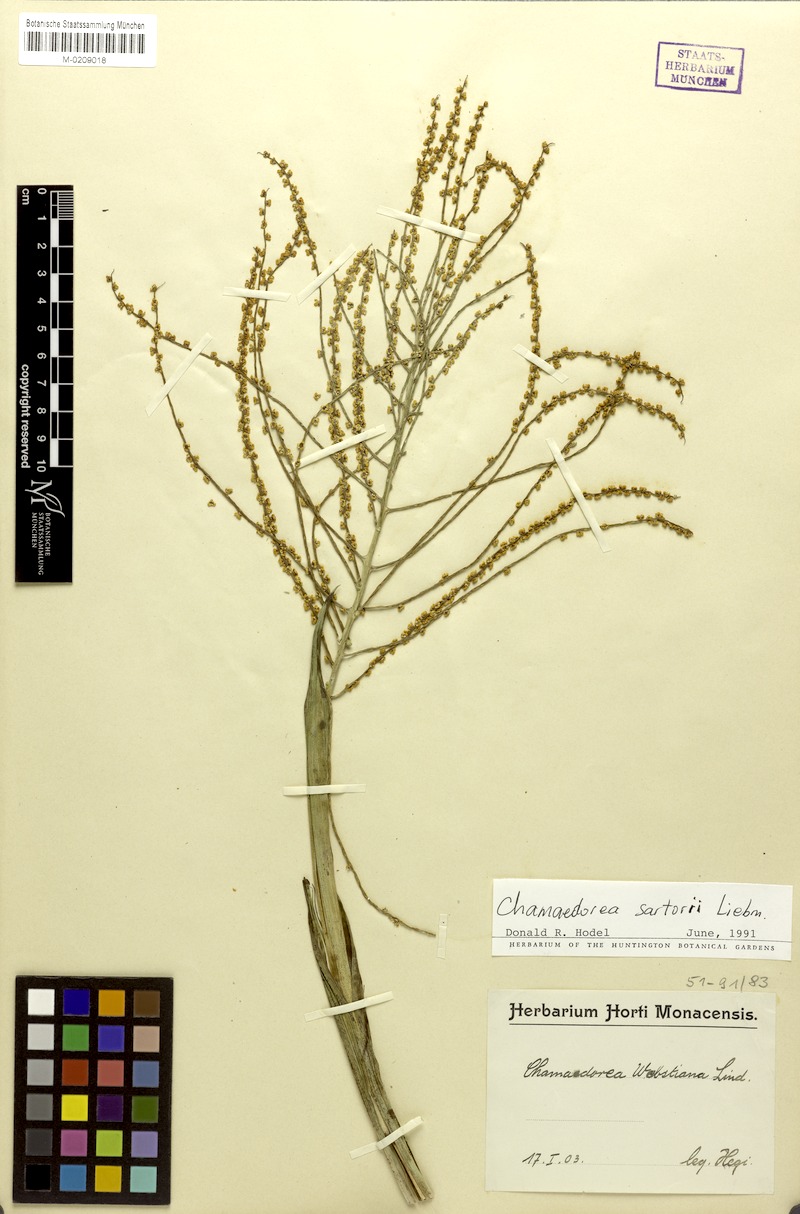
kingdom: Plantae
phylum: Tracheophyta
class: Liliopsida
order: Arecales
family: Arecaceae
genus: Chamaedorea
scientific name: Chamaedorea sartorii
